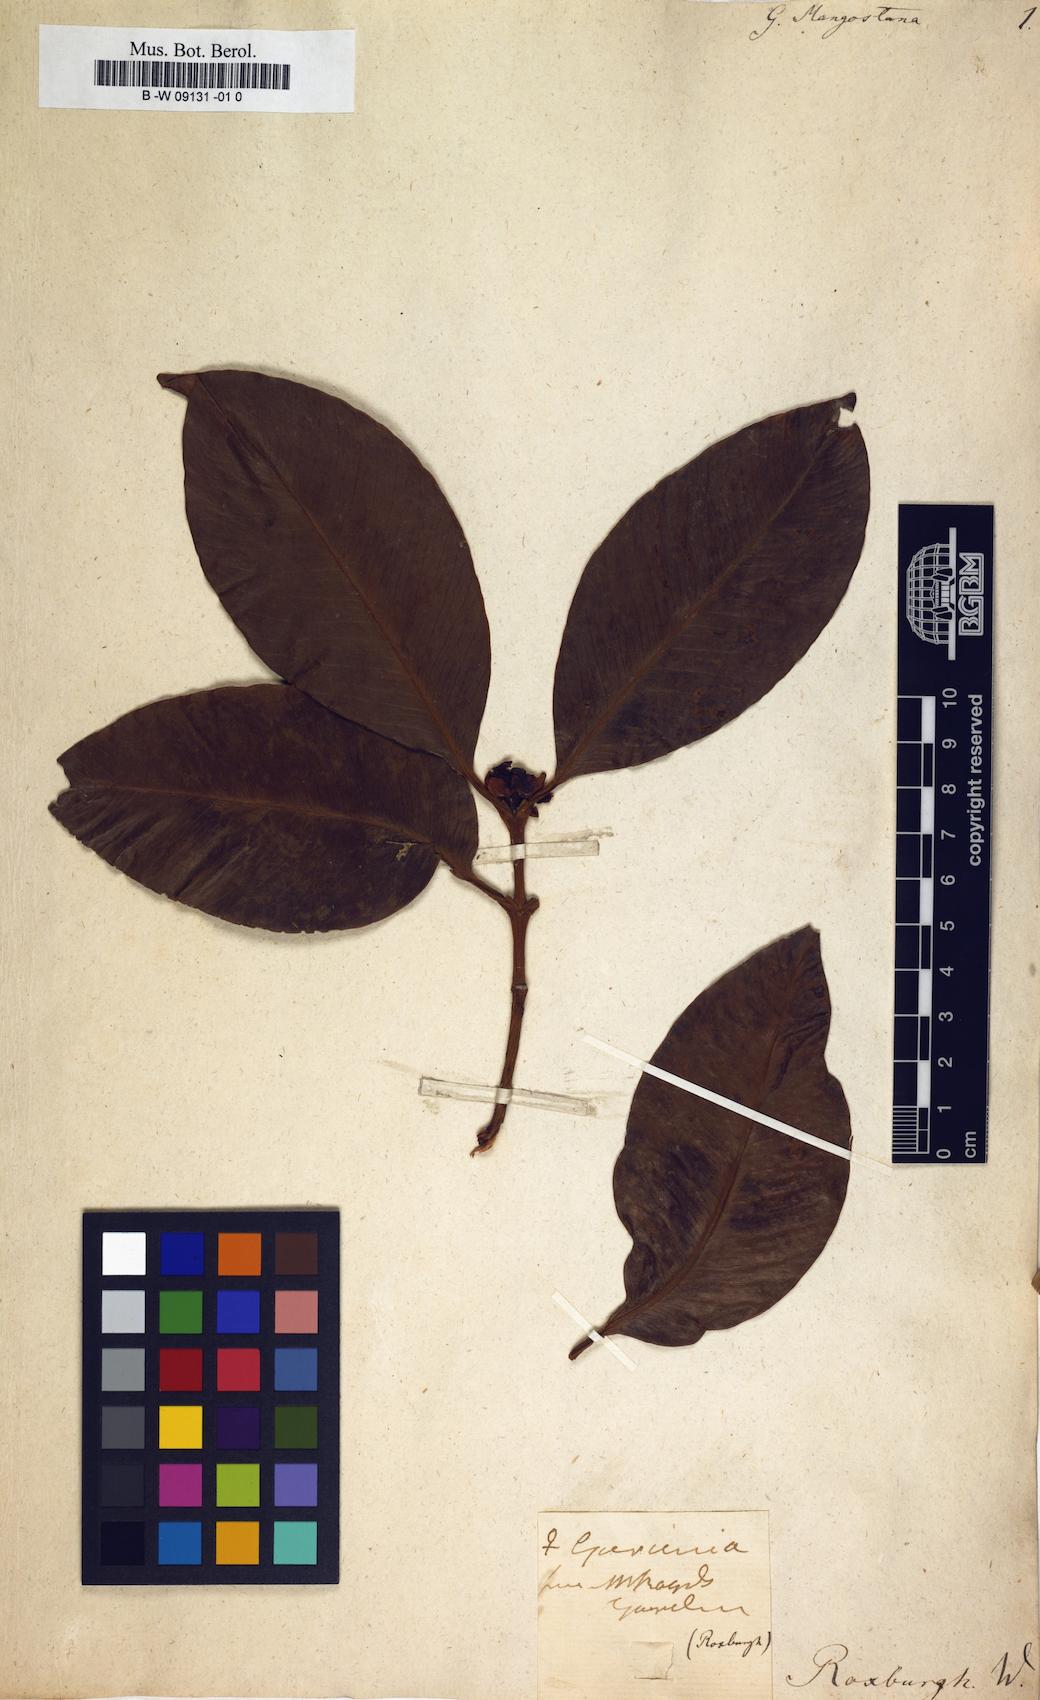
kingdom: Plantae
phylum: Tracheophyta
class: Magnoliopsida
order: Malpighiales
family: Clusiaceae
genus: Garcinia
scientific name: Garcinia mangostana
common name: Mangosteen
